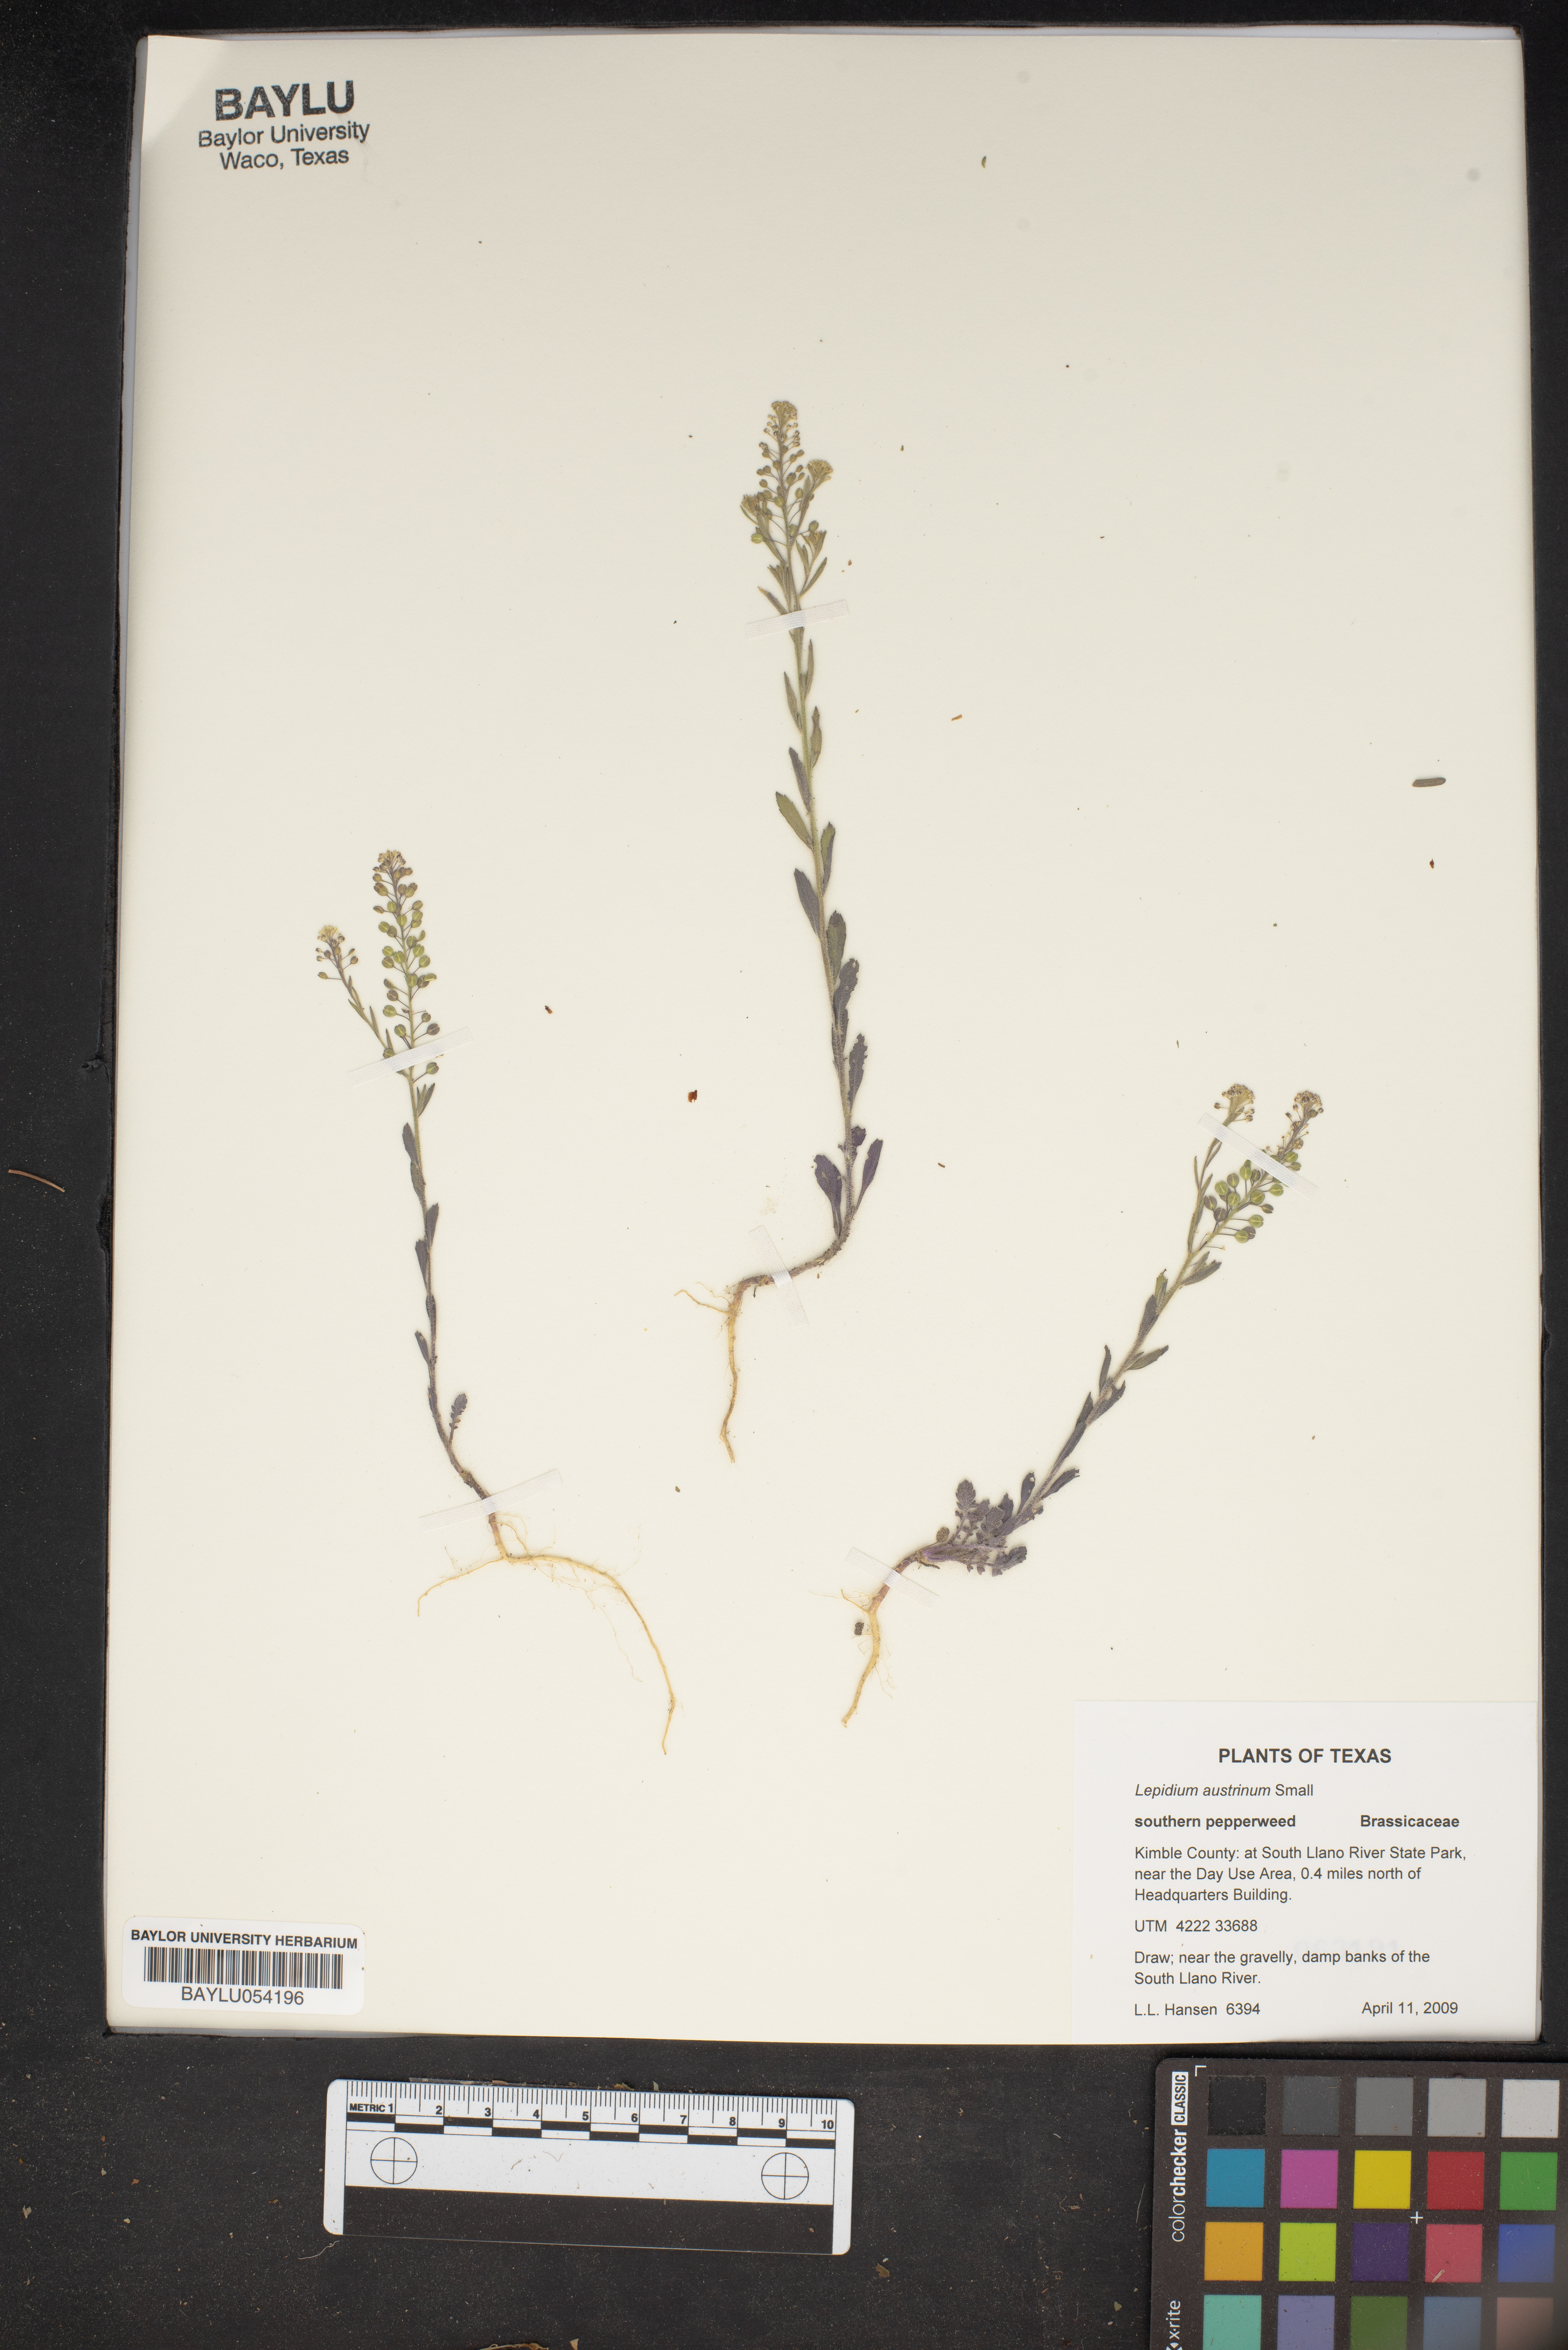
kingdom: Plantae
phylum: Tracheophyta
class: Magnoliopsida
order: Brassicales
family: Brassicaceae
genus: Lepidium
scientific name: Lepidium austrinum
